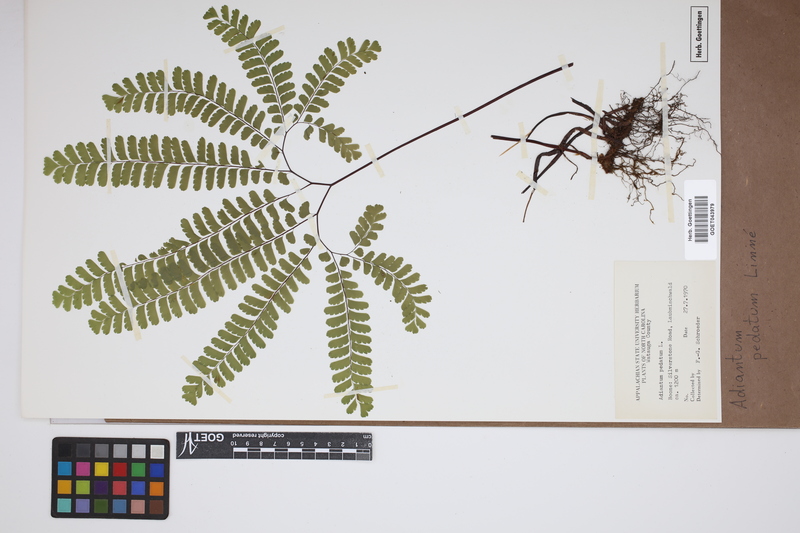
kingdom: Plantae
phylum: Tracheophyta
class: Polypodiopsida
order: Polypodiales
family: Pteridaceae
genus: Adiantum
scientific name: Adiantum pedatum
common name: Five-finger fern
